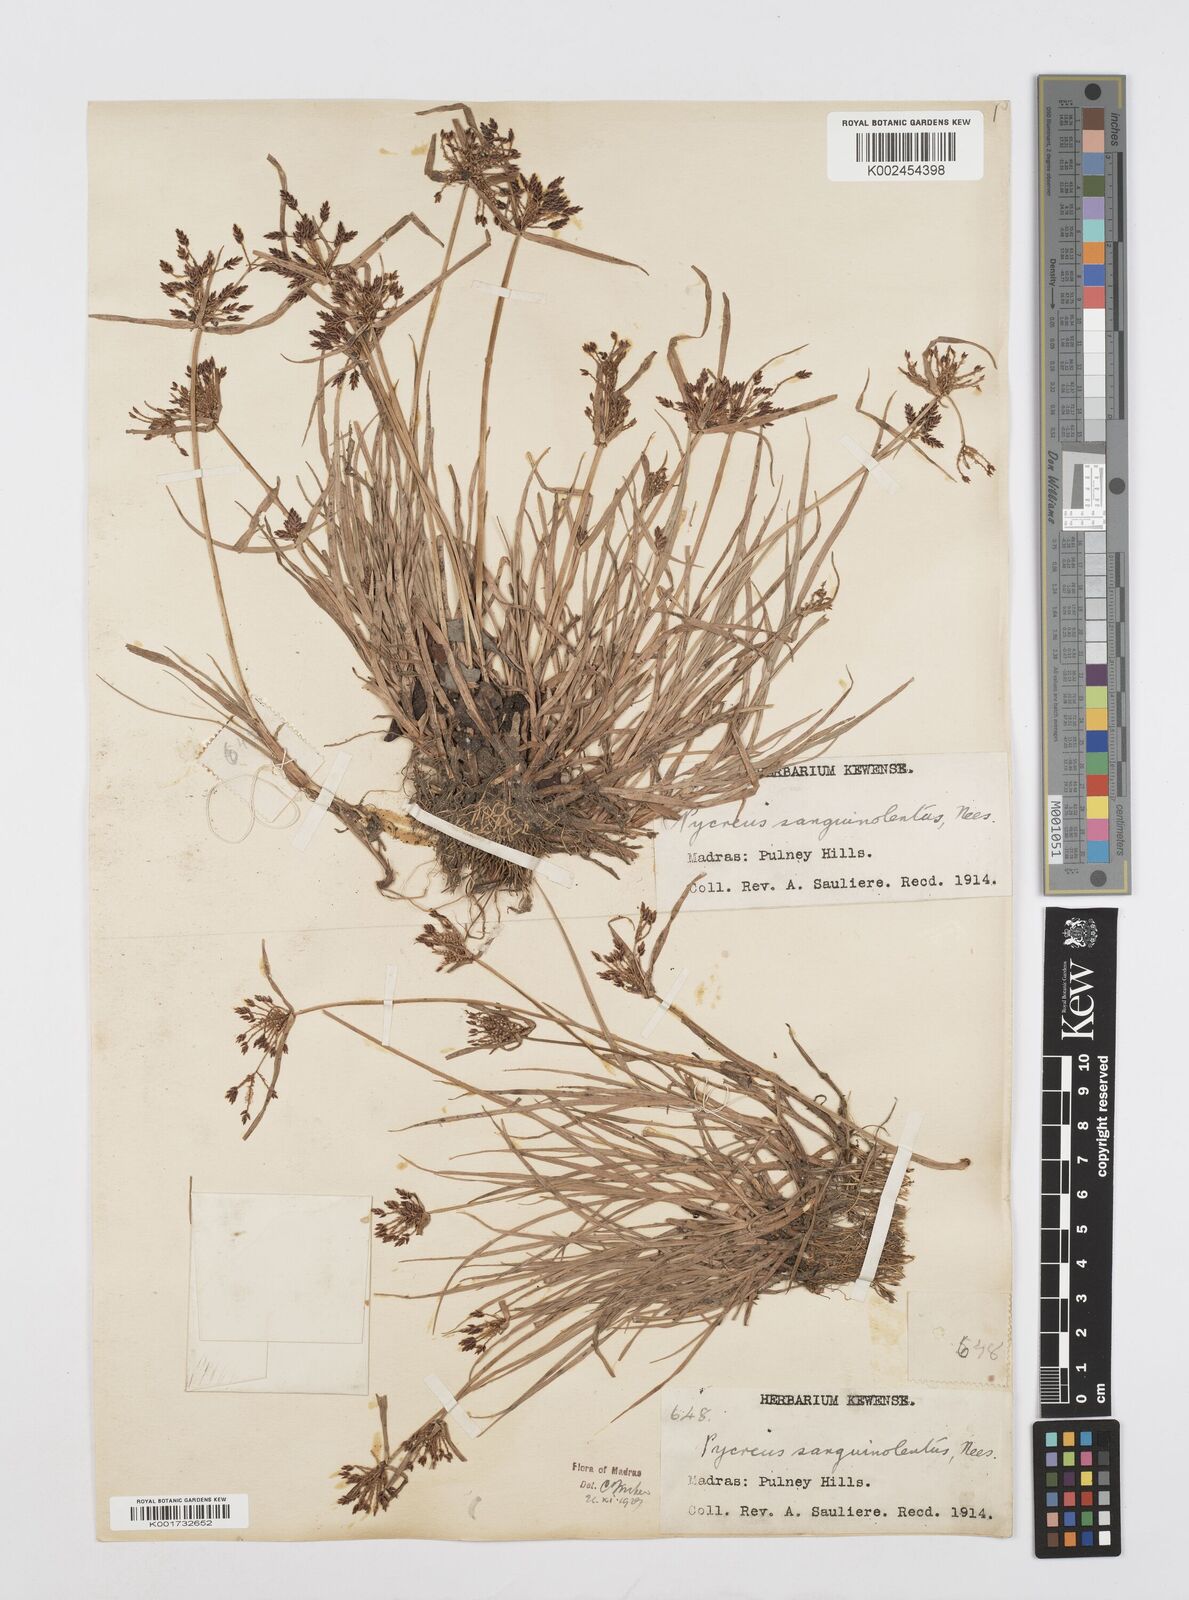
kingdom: Plantae
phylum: Tracheophyta
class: Liliopsida
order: Poales
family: Cyperaceae
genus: Cyperus
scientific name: Cyperus sanguinolentus
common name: Purpleglume flatsedge
